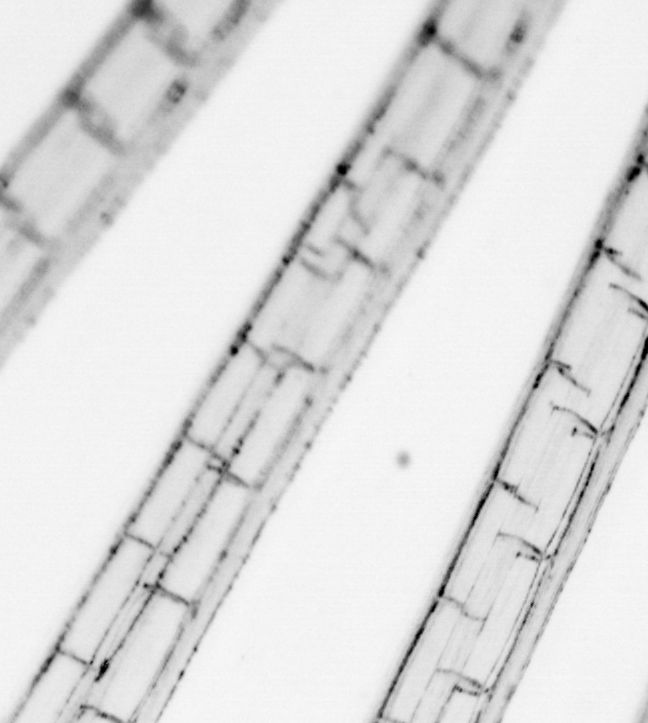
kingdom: Animalia
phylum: Chordata
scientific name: Chordata
